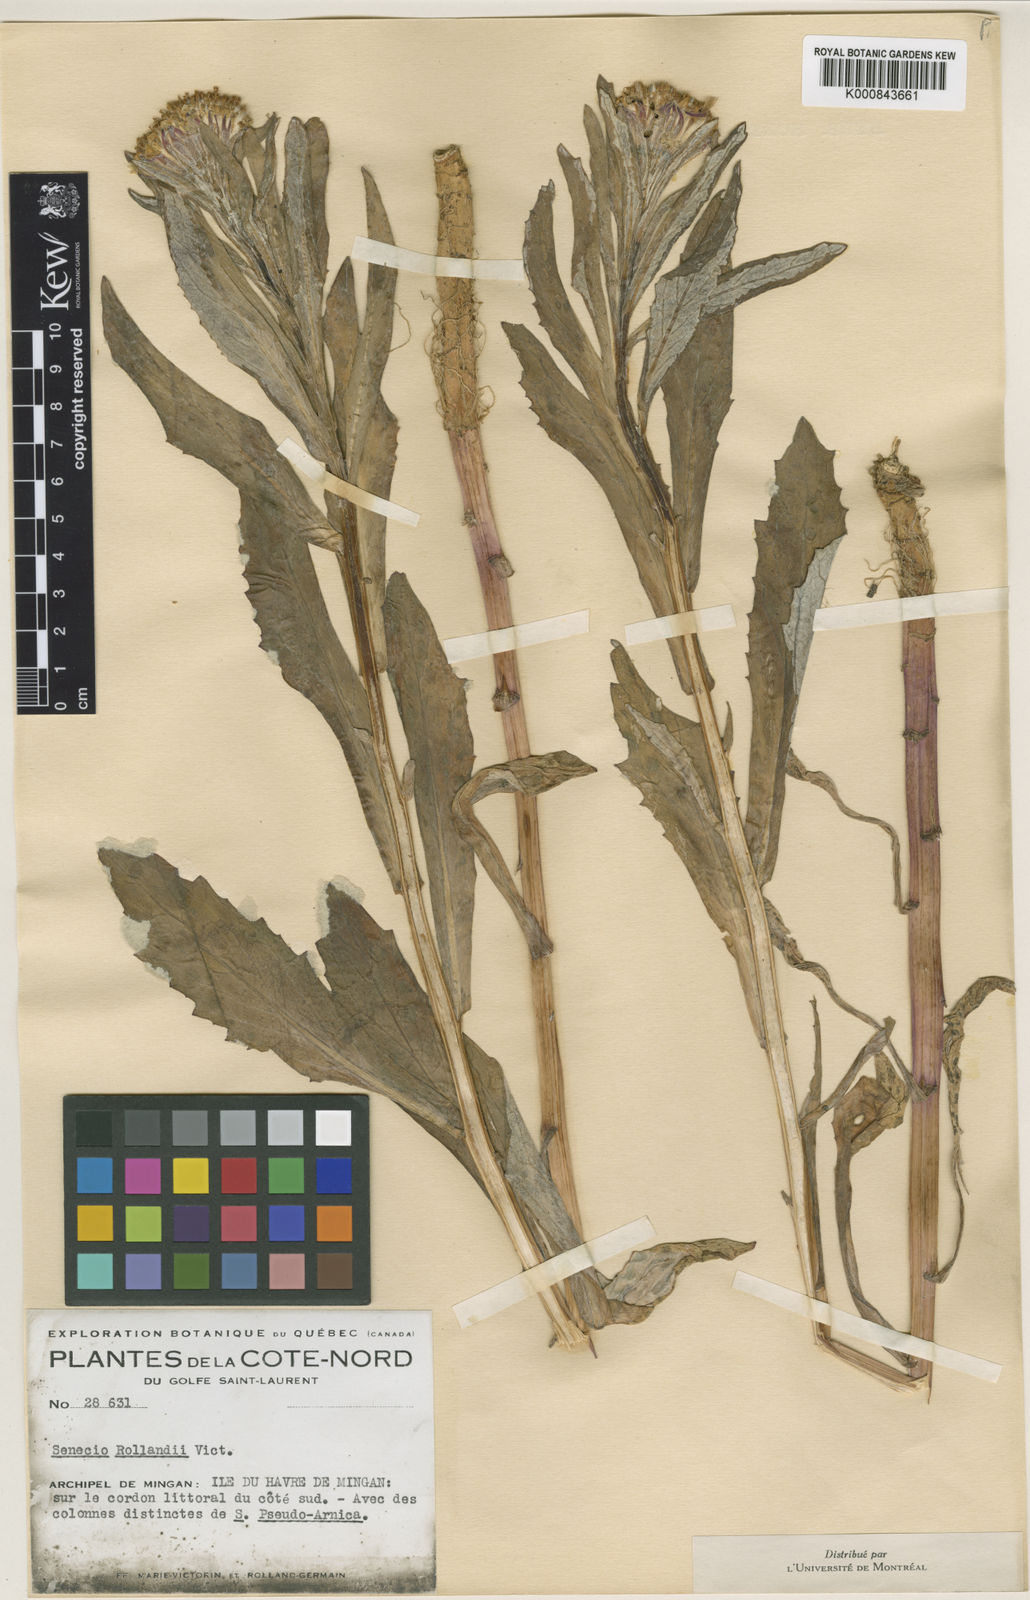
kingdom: Plantae
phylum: Tracheophyta
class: Magnoliopsida
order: Asterales
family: Asteraceae
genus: Jacobaea
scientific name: Jacobaea pseudoarnica
